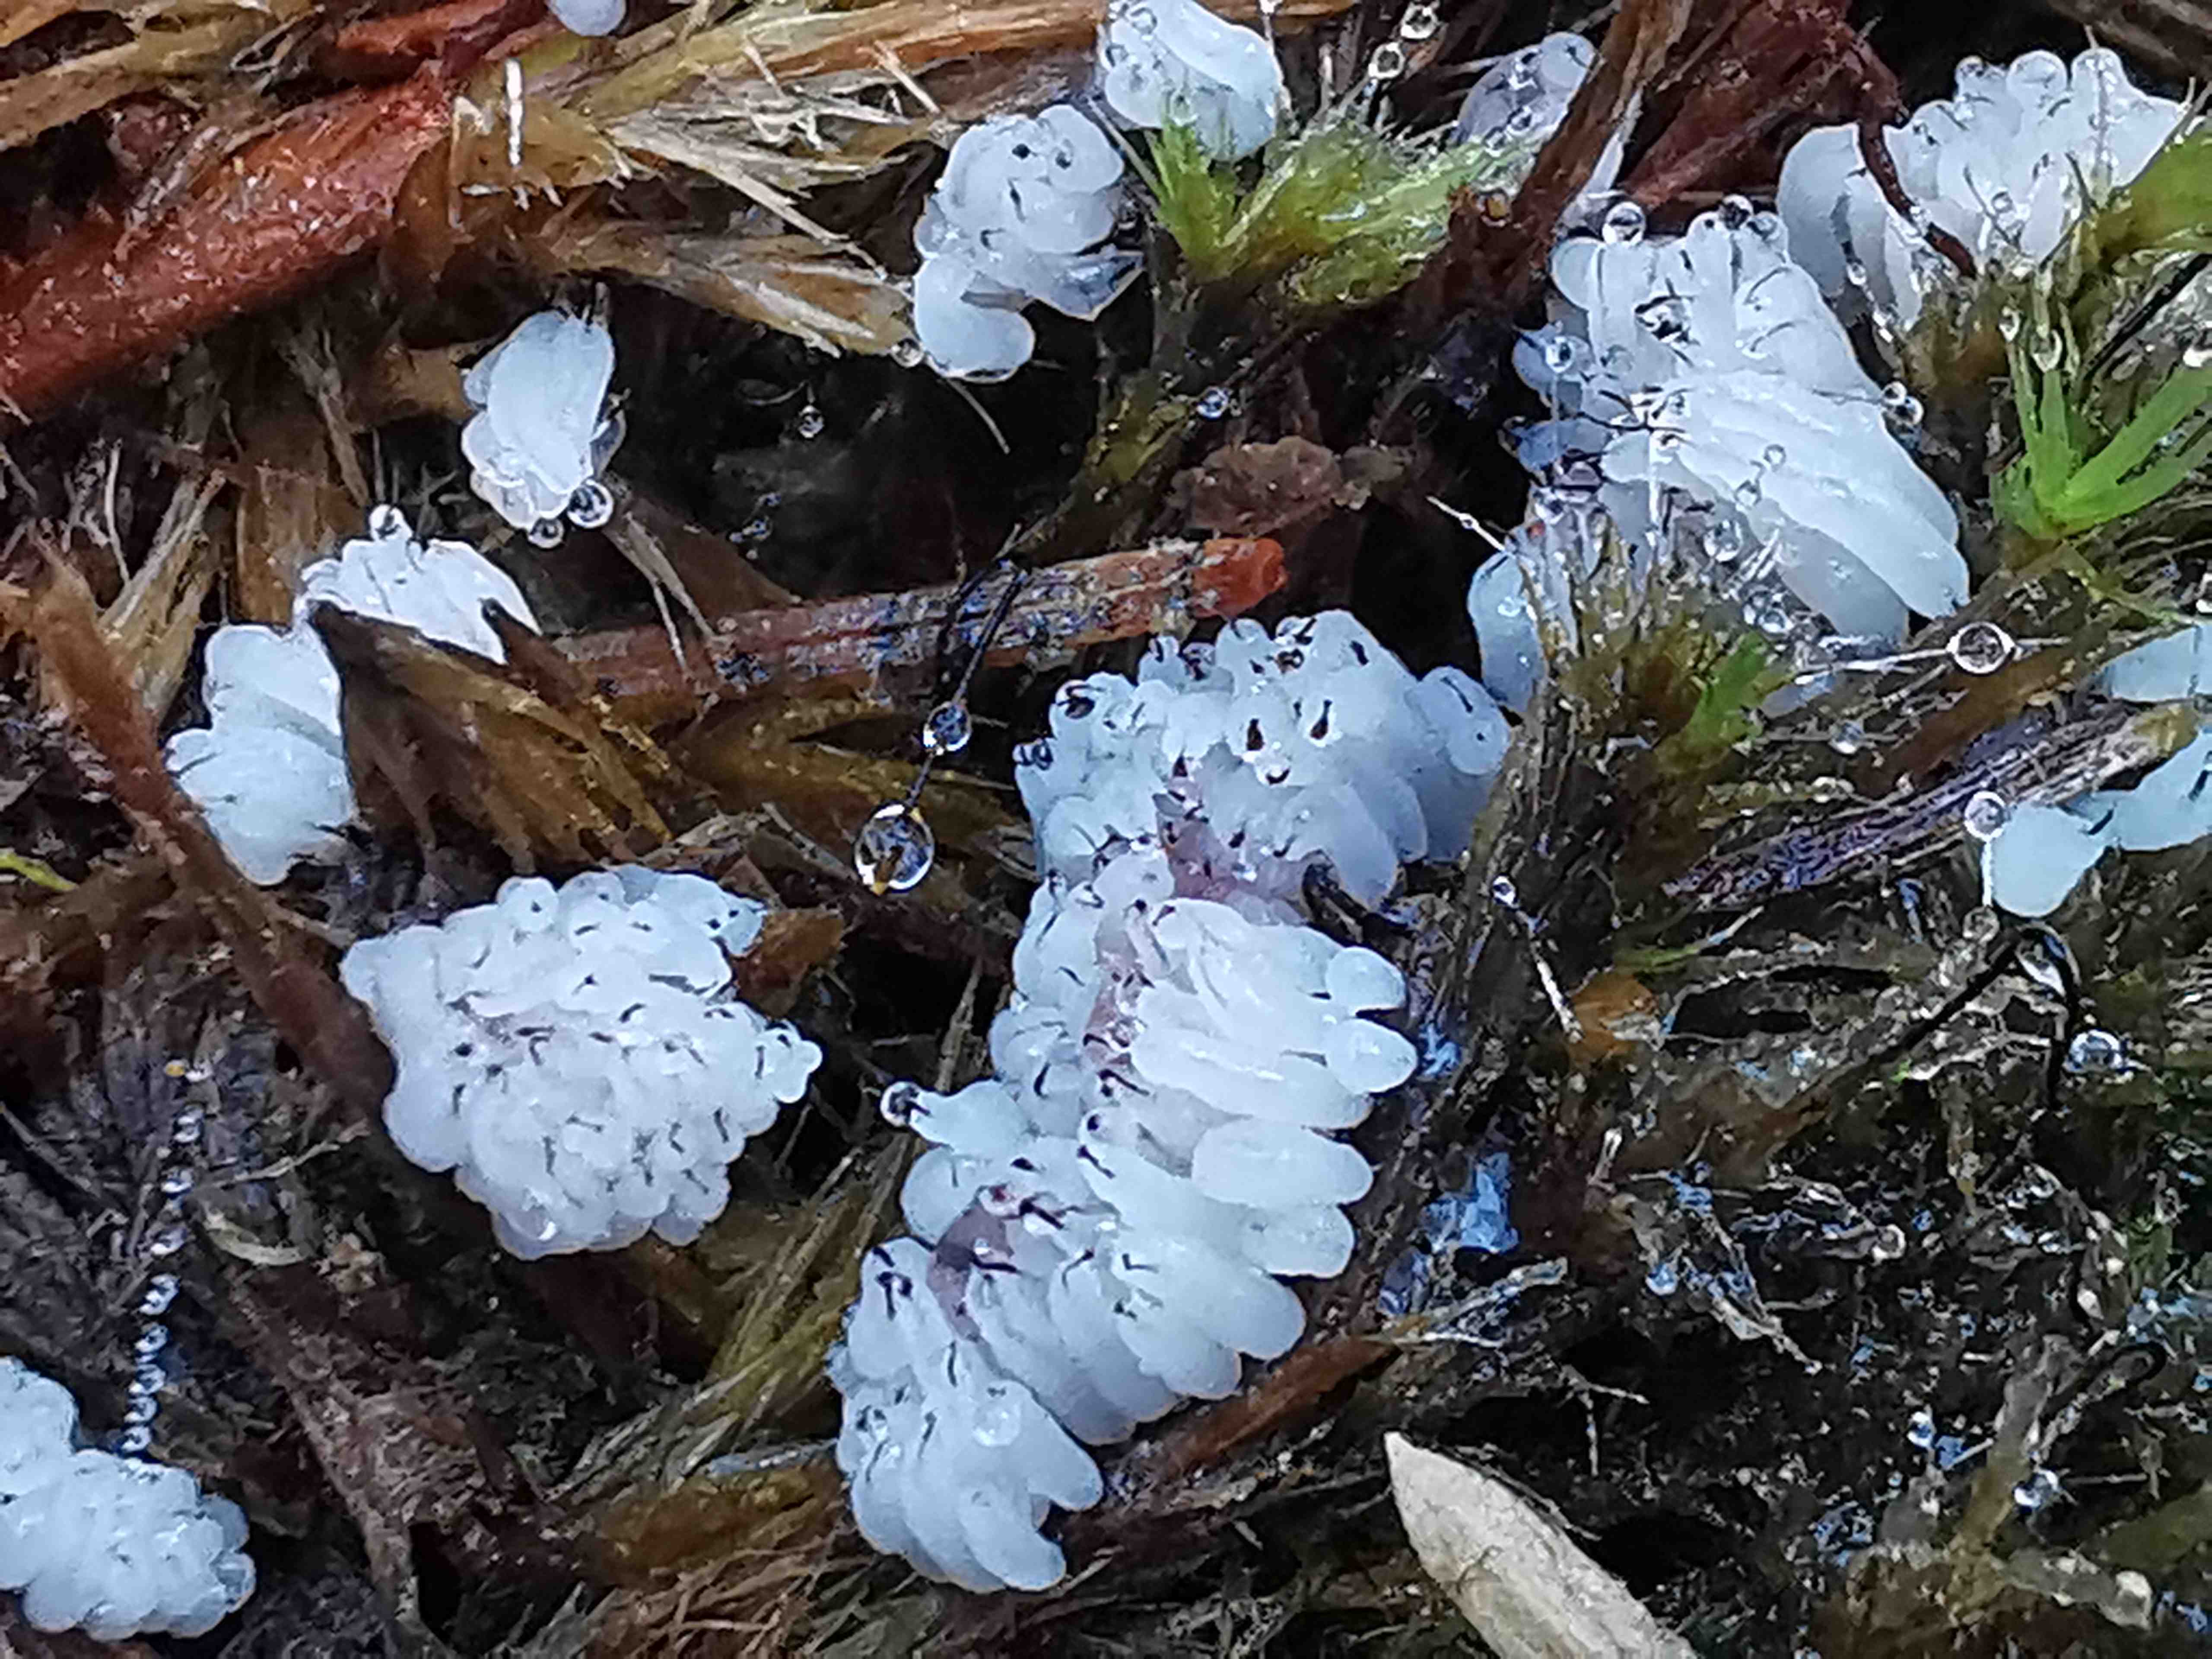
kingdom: Protozoa
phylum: Mycetozoa
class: Myxomycetes
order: Stemonitidales
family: Stemonitidaceae
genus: Stemonitis
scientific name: Stemonitis
